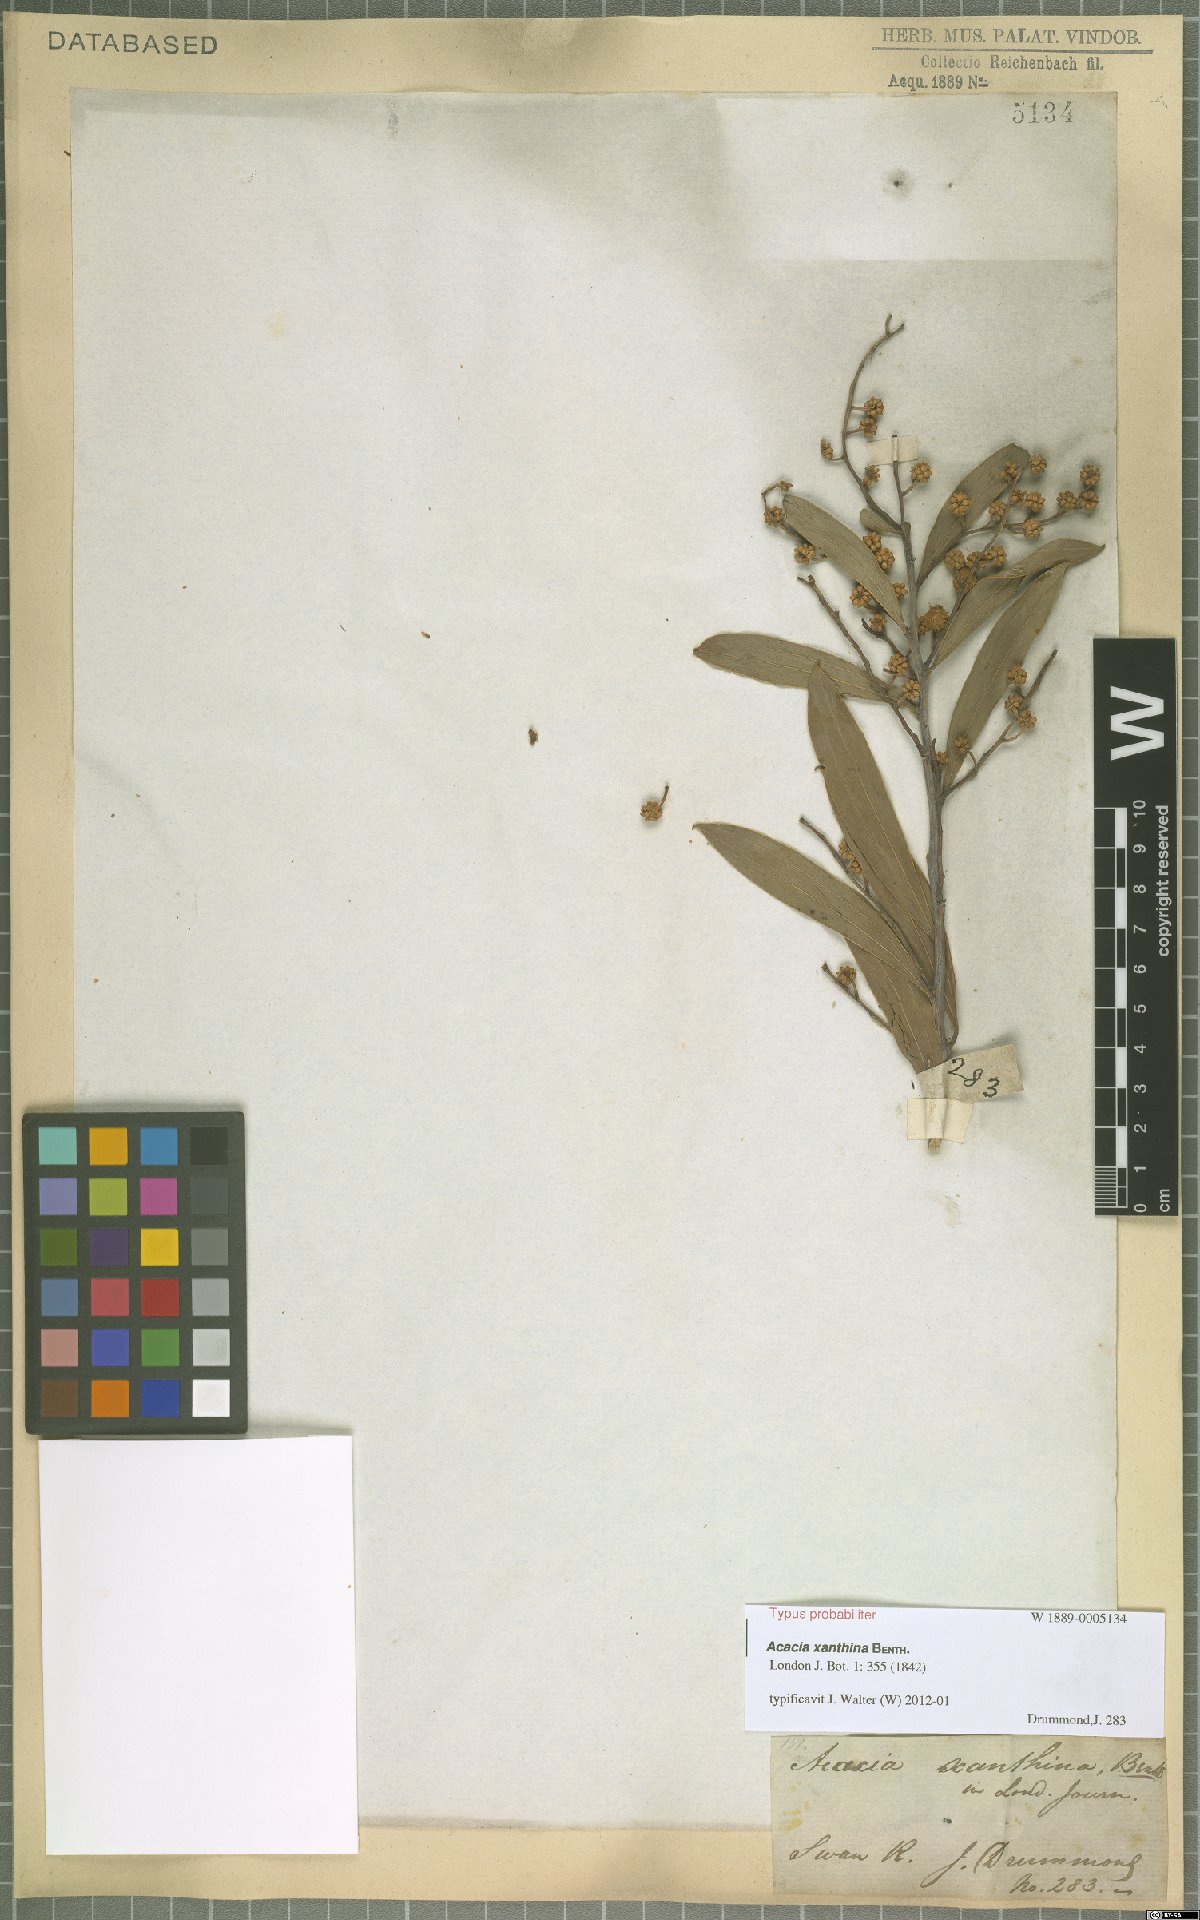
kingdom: Plantae
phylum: Tracheophyta
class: Magnoliopsida
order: Fabales
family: Fabaceae
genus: Acacia
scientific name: Acacia xanthina
